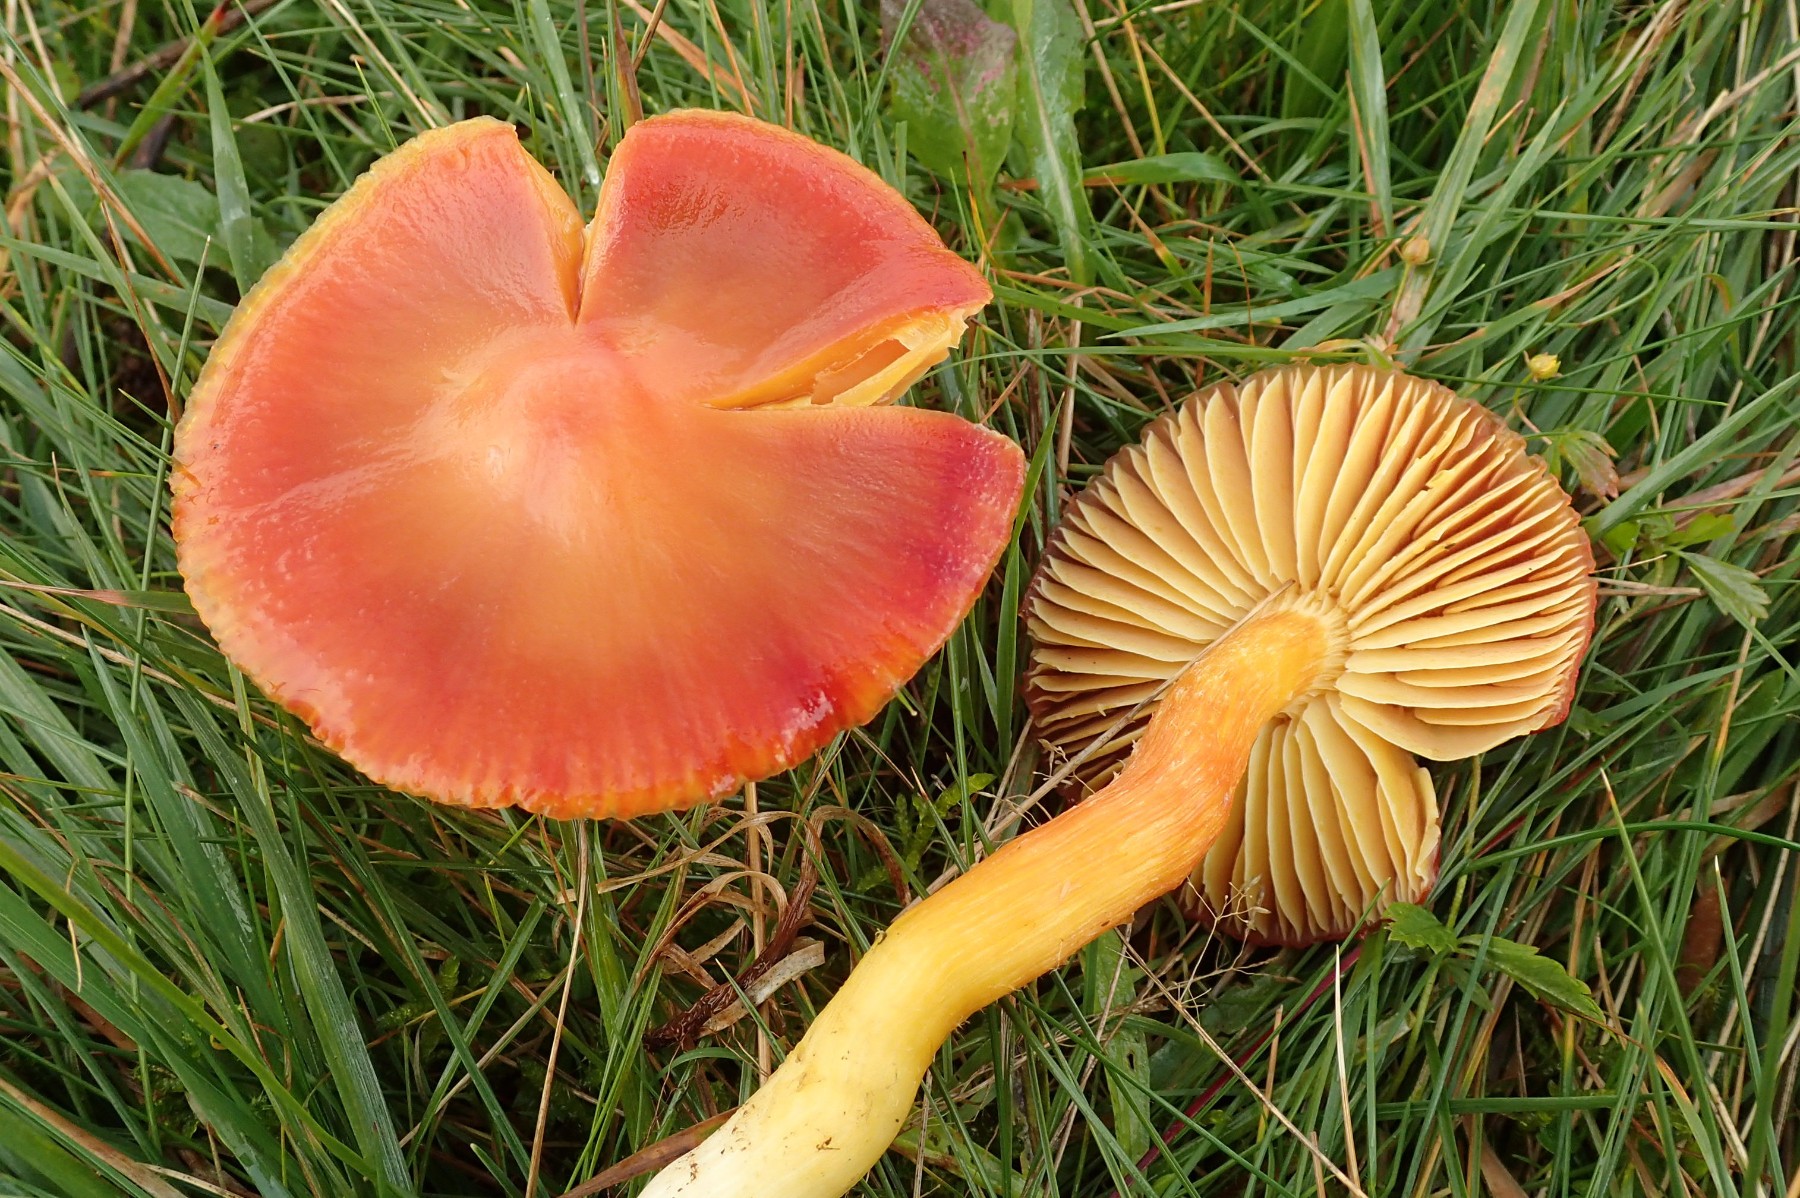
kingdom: Fungi
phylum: Basidiomycota
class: Agaricomycetes
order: Agaricales
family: Hygrophoraceae
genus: Hygrocybe
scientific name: Hygrocybe punicea
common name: skarlagen-vokshat
